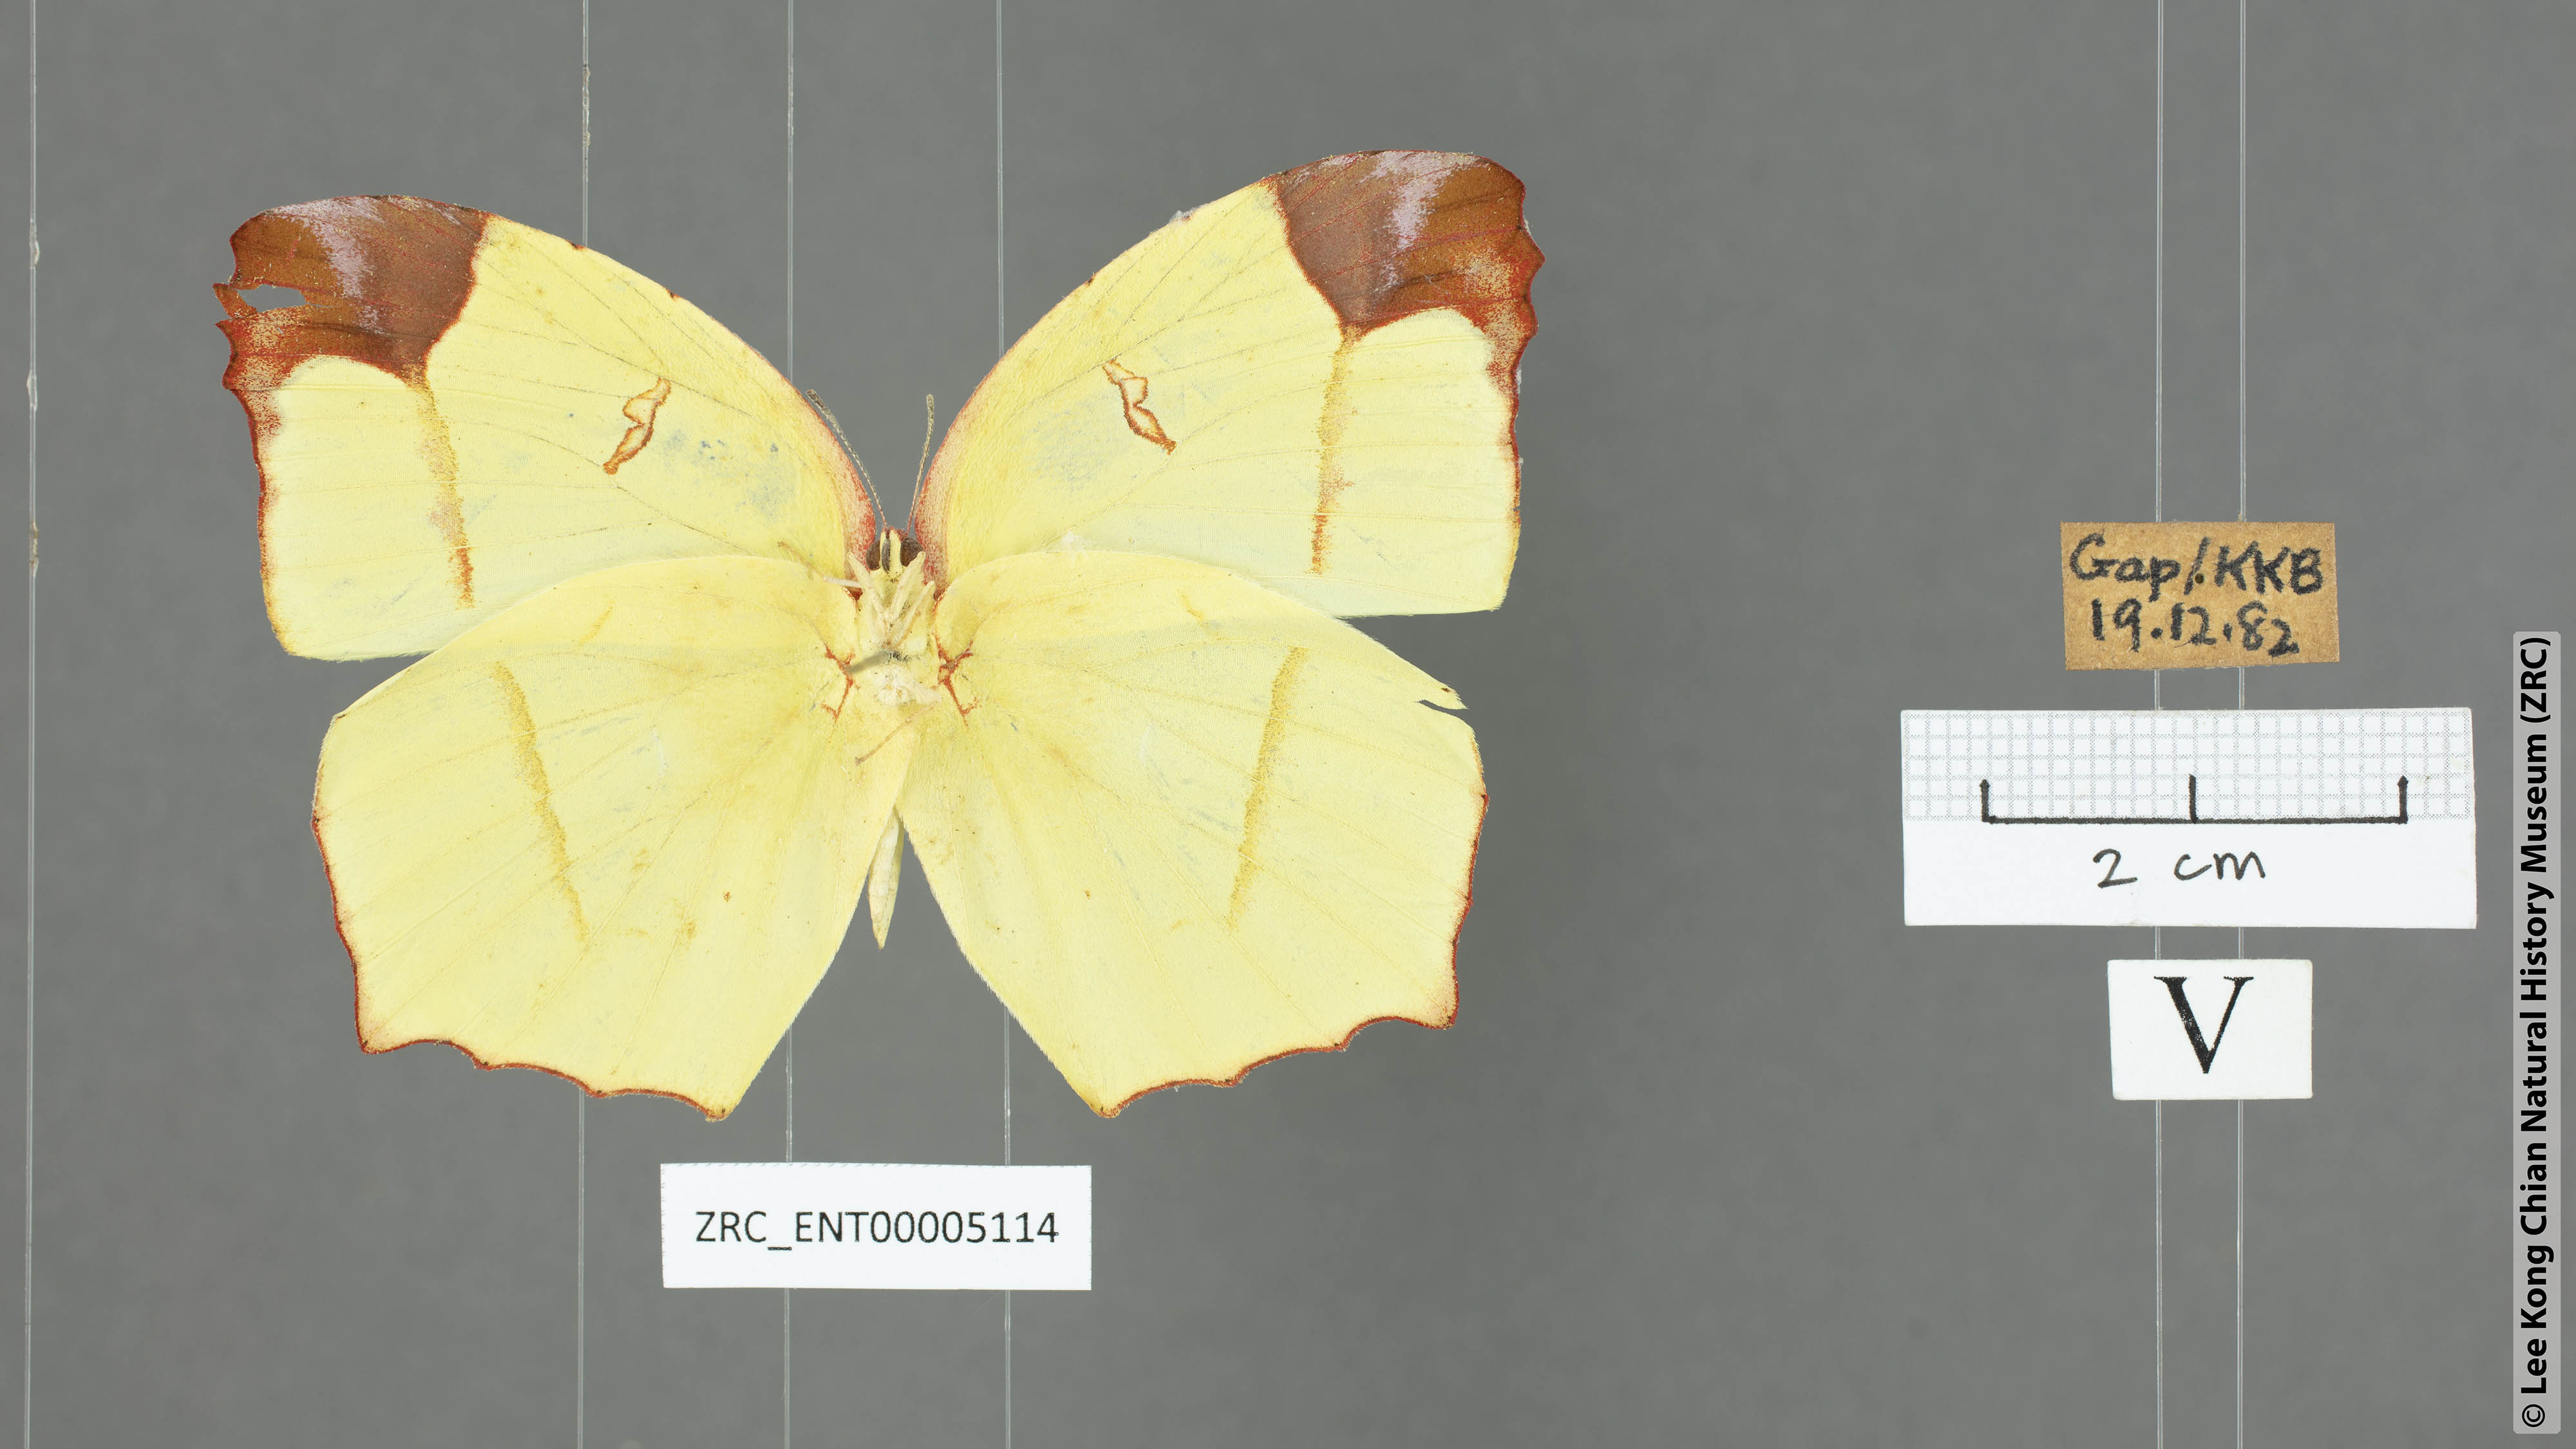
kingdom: Animalia
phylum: Arthropoda
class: Insecta
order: Lepidoptera
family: Pieridae
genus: Dercas
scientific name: Dercas verhuelli
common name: Tailed sulphur
